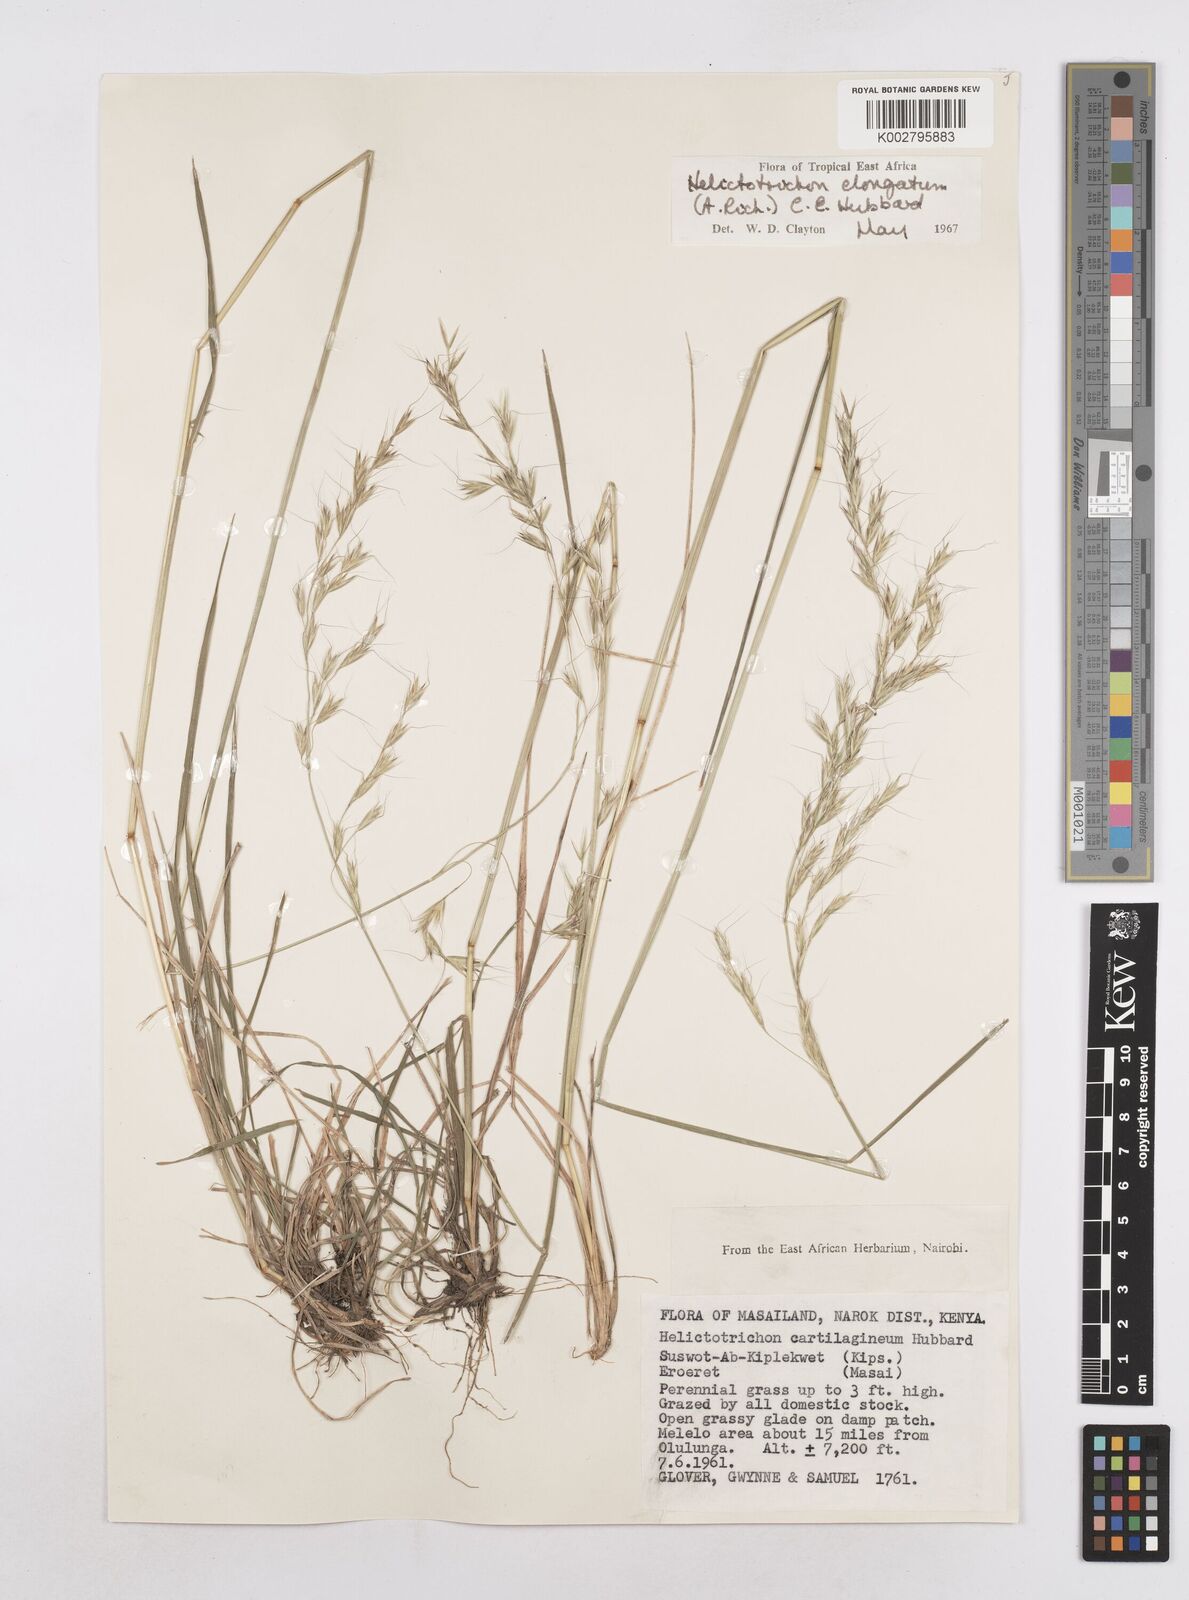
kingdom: Plantae
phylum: Tracheophyta
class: Liliopsida
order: Poales
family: Poaceae
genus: Trisetopsis
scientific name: Trisetopsis elongata
